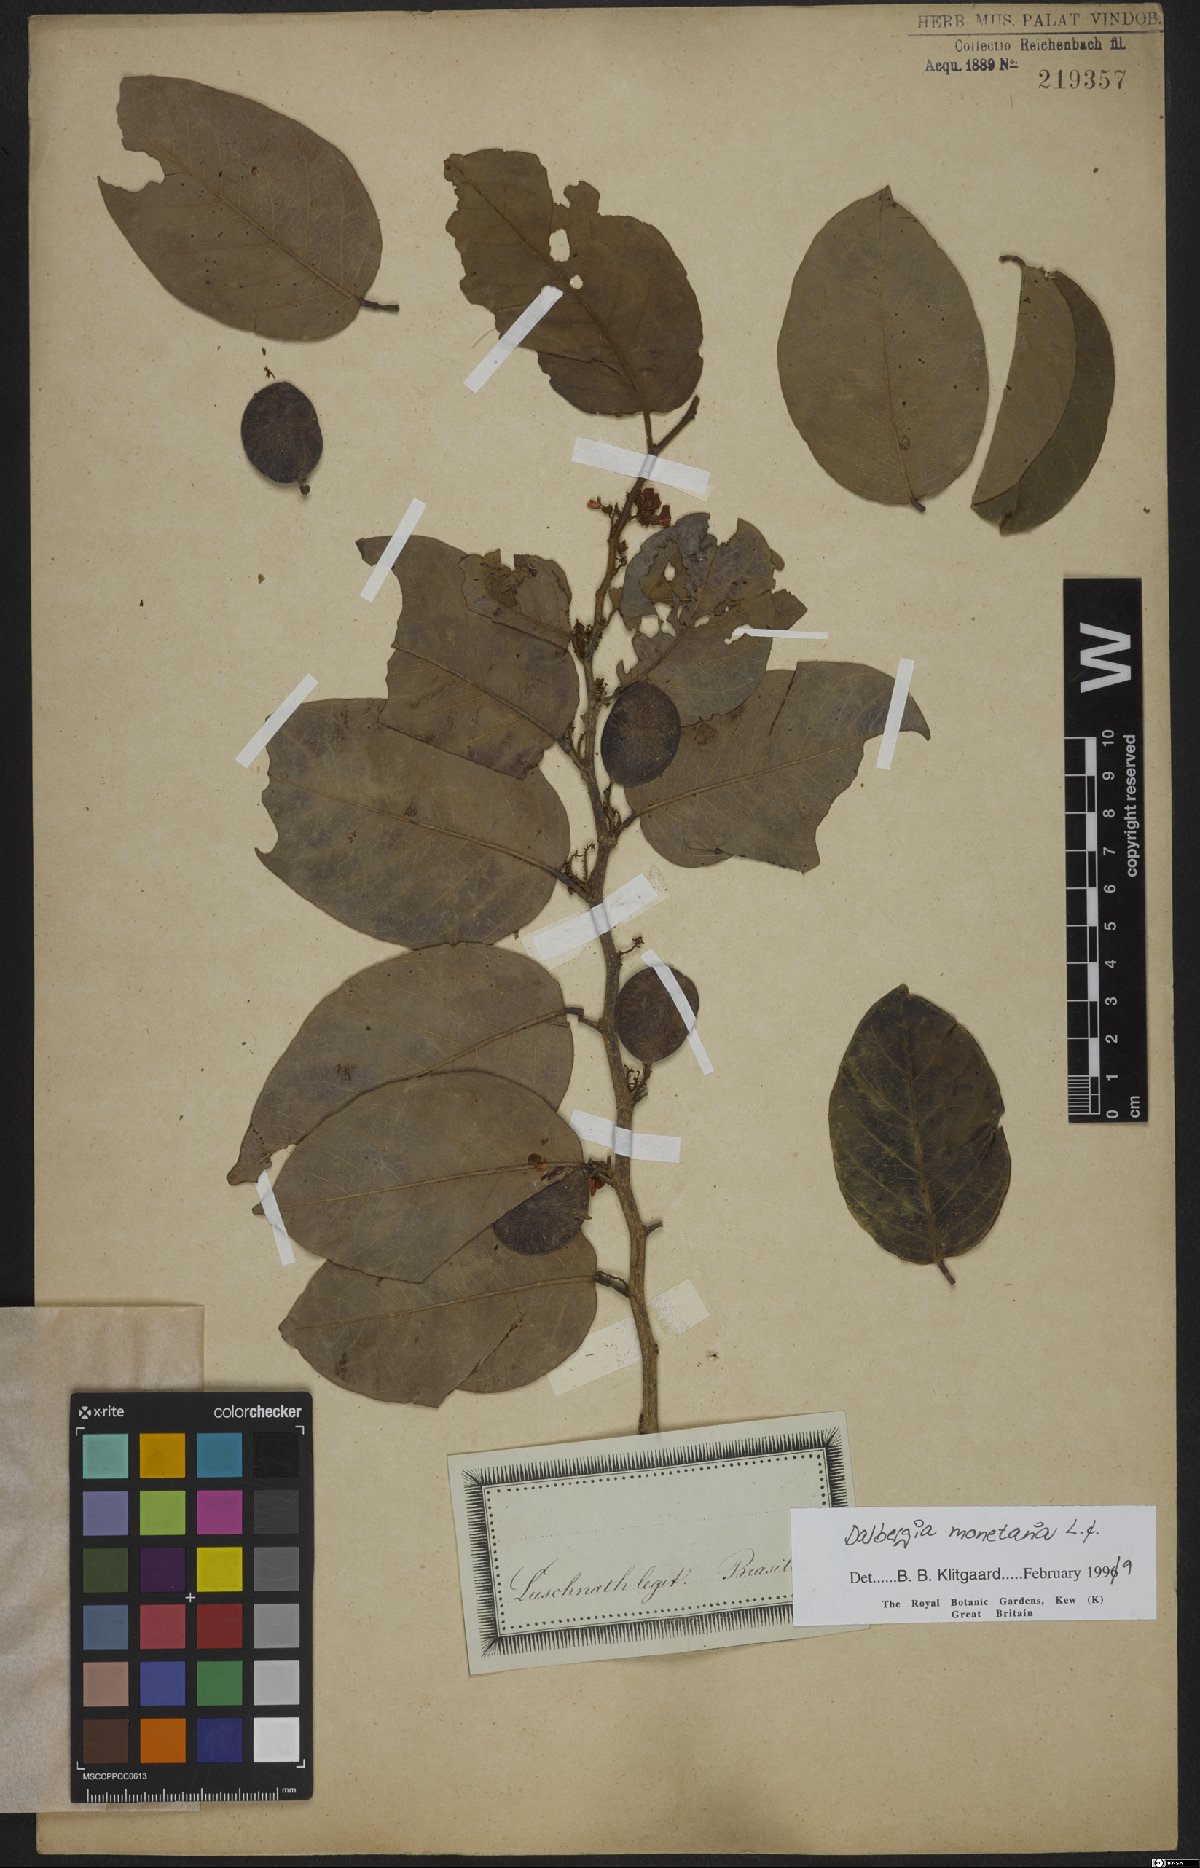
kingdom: Plantae
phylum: Tracheophyta
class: Magnoliopsida
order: Fabales
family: Fabaceae
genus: Dalbergia
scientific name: Dalbergia ovalis
